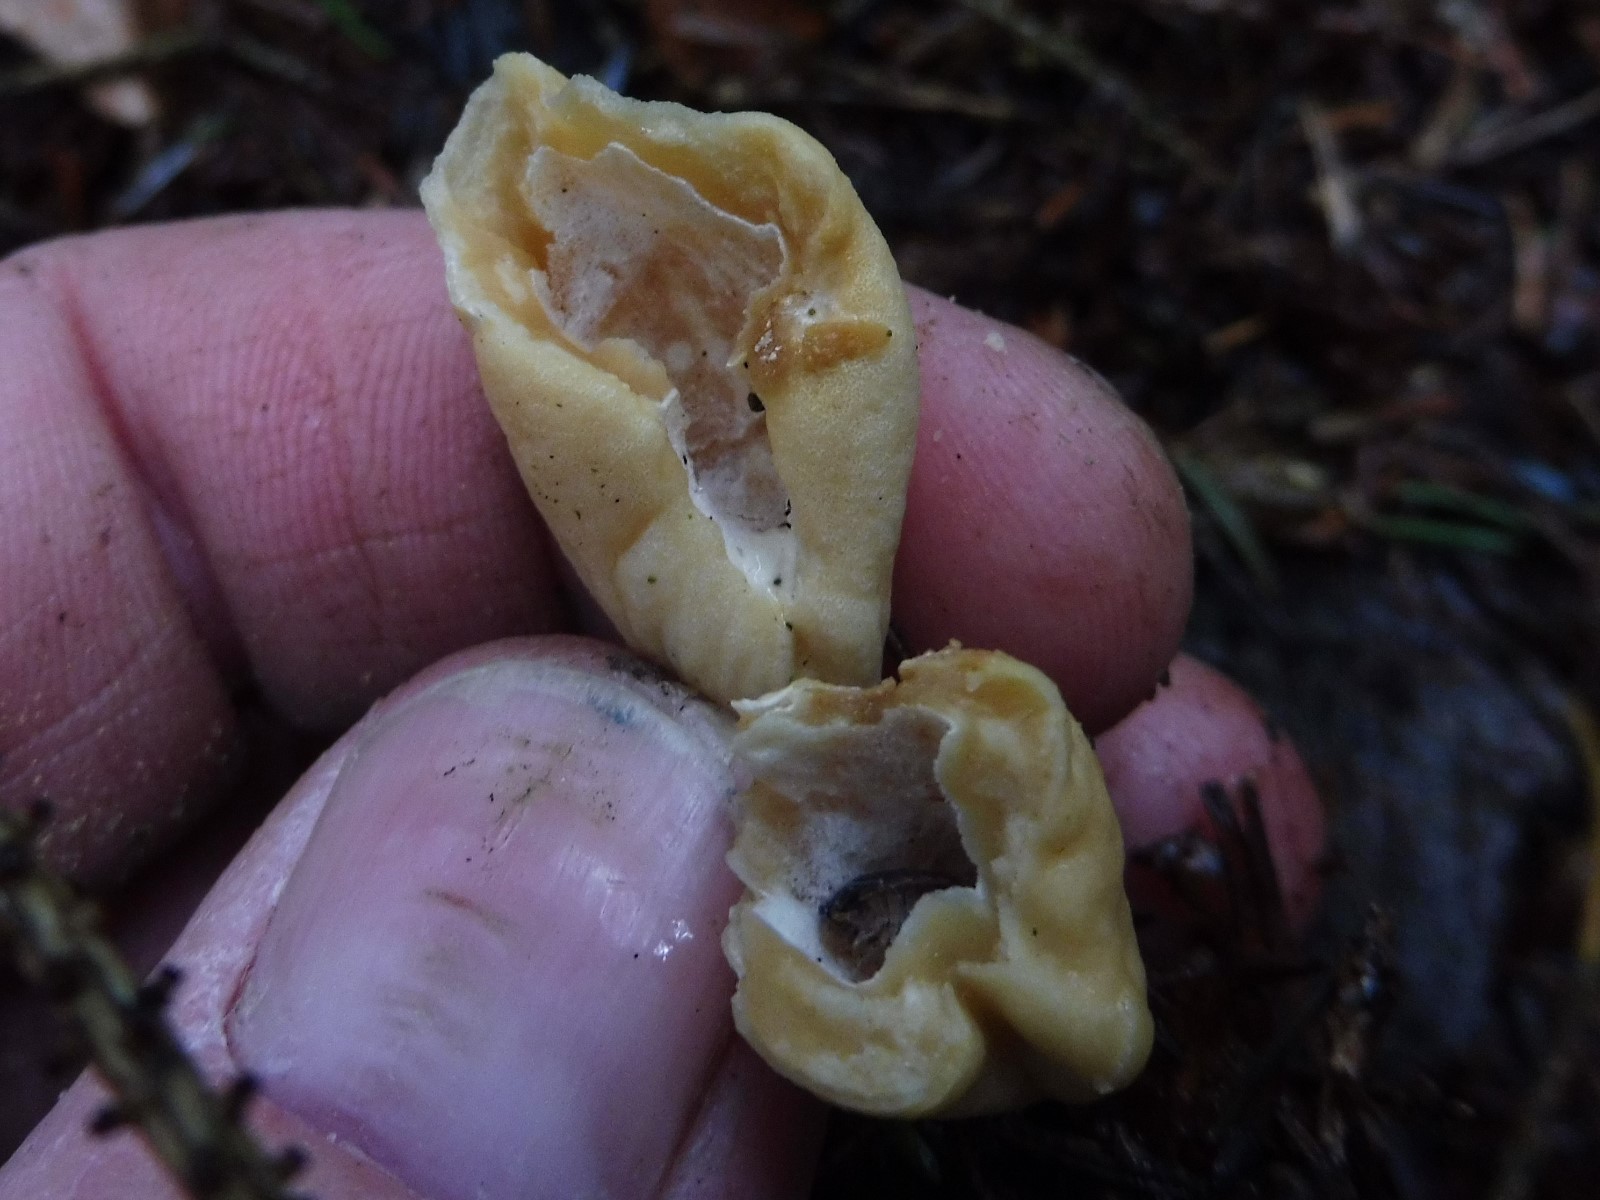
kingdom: Fungi
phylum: Ascomycota
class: Pezizomycetes
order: Pezizales
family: Helvellaceae
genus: Helvella
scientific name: Helvella elastica
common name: elastik-foldhat
